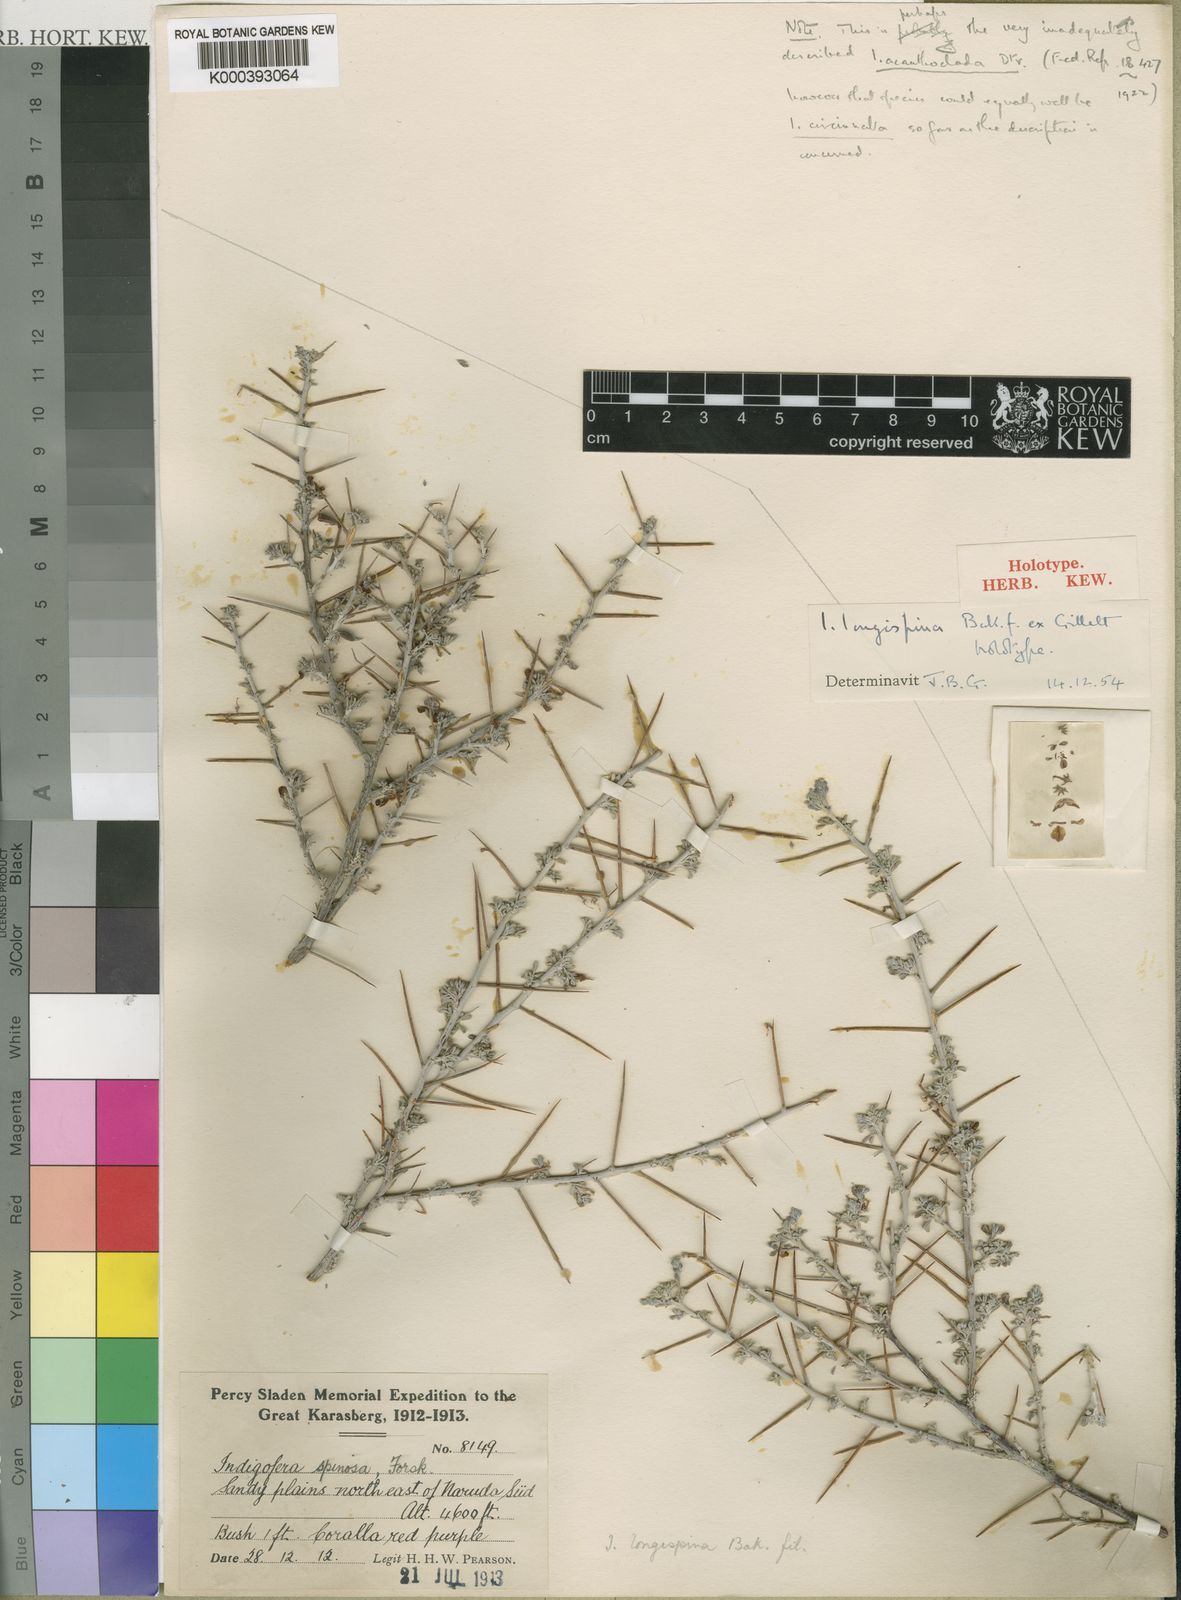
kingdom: Plantae
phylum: Tracheophyta
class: Magnoliopsida
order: Fabales
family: Fabaceae
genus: Indigofera
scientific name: Indigofera acanthoclada
